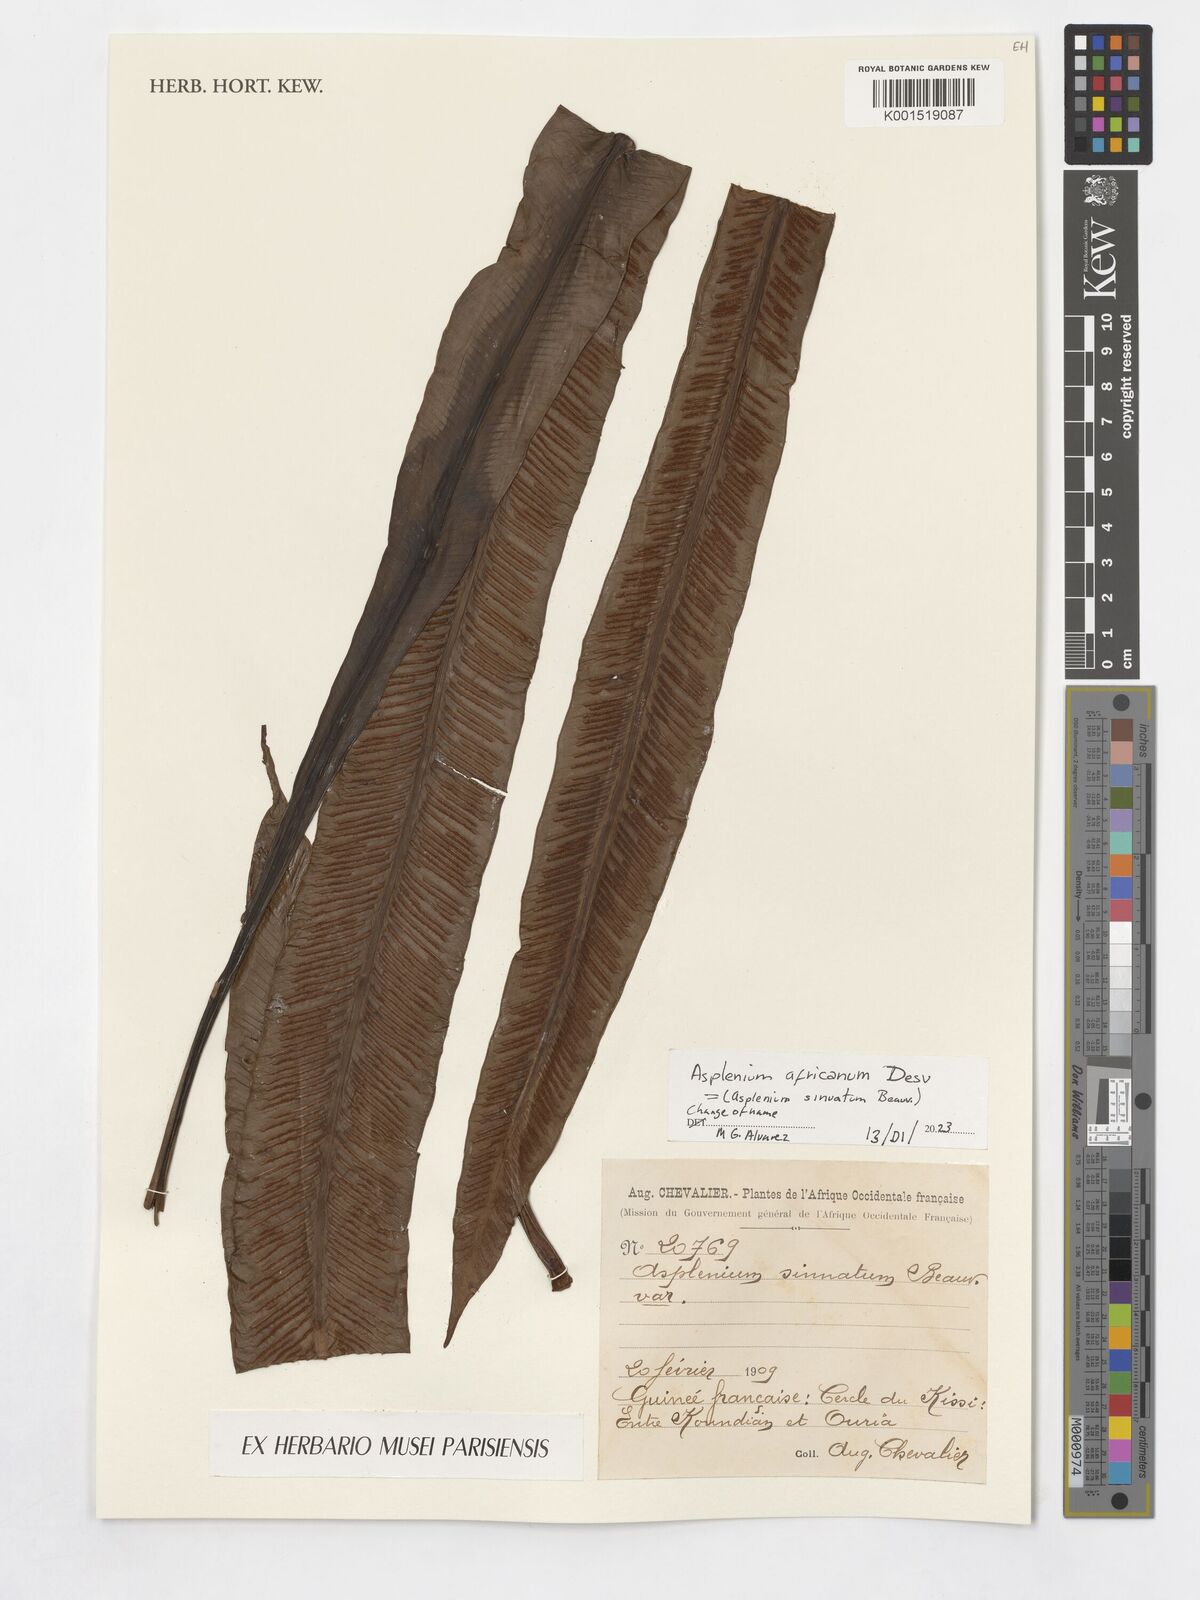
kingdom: Plantae
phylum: Tracheophyta
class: Polypodiopsida
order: Polypodiales
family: Aspleniaceae
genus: Asplenium
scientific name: Asplenium sinuatum
